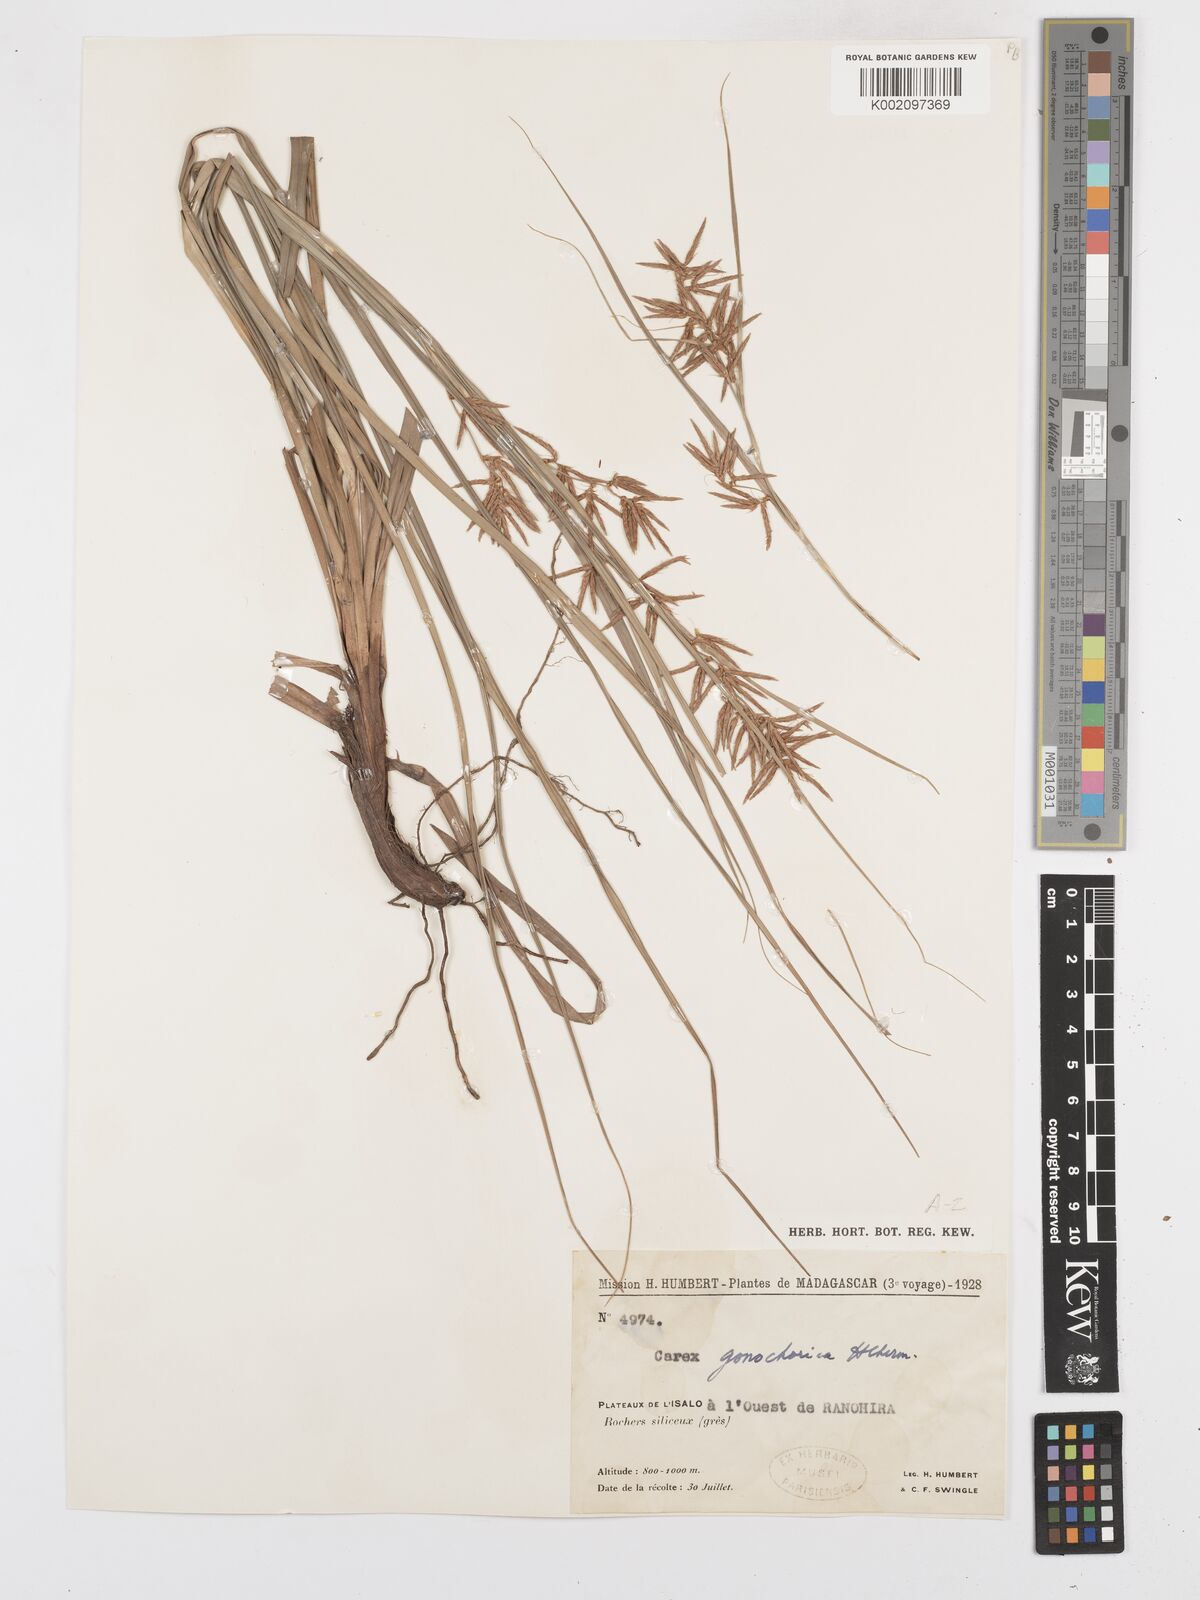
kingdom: Plantae
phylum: Tracheophyta
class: Liliopsida
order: Poales
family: Cyperaceae
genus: Carex
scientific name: Carex pyramidalis
